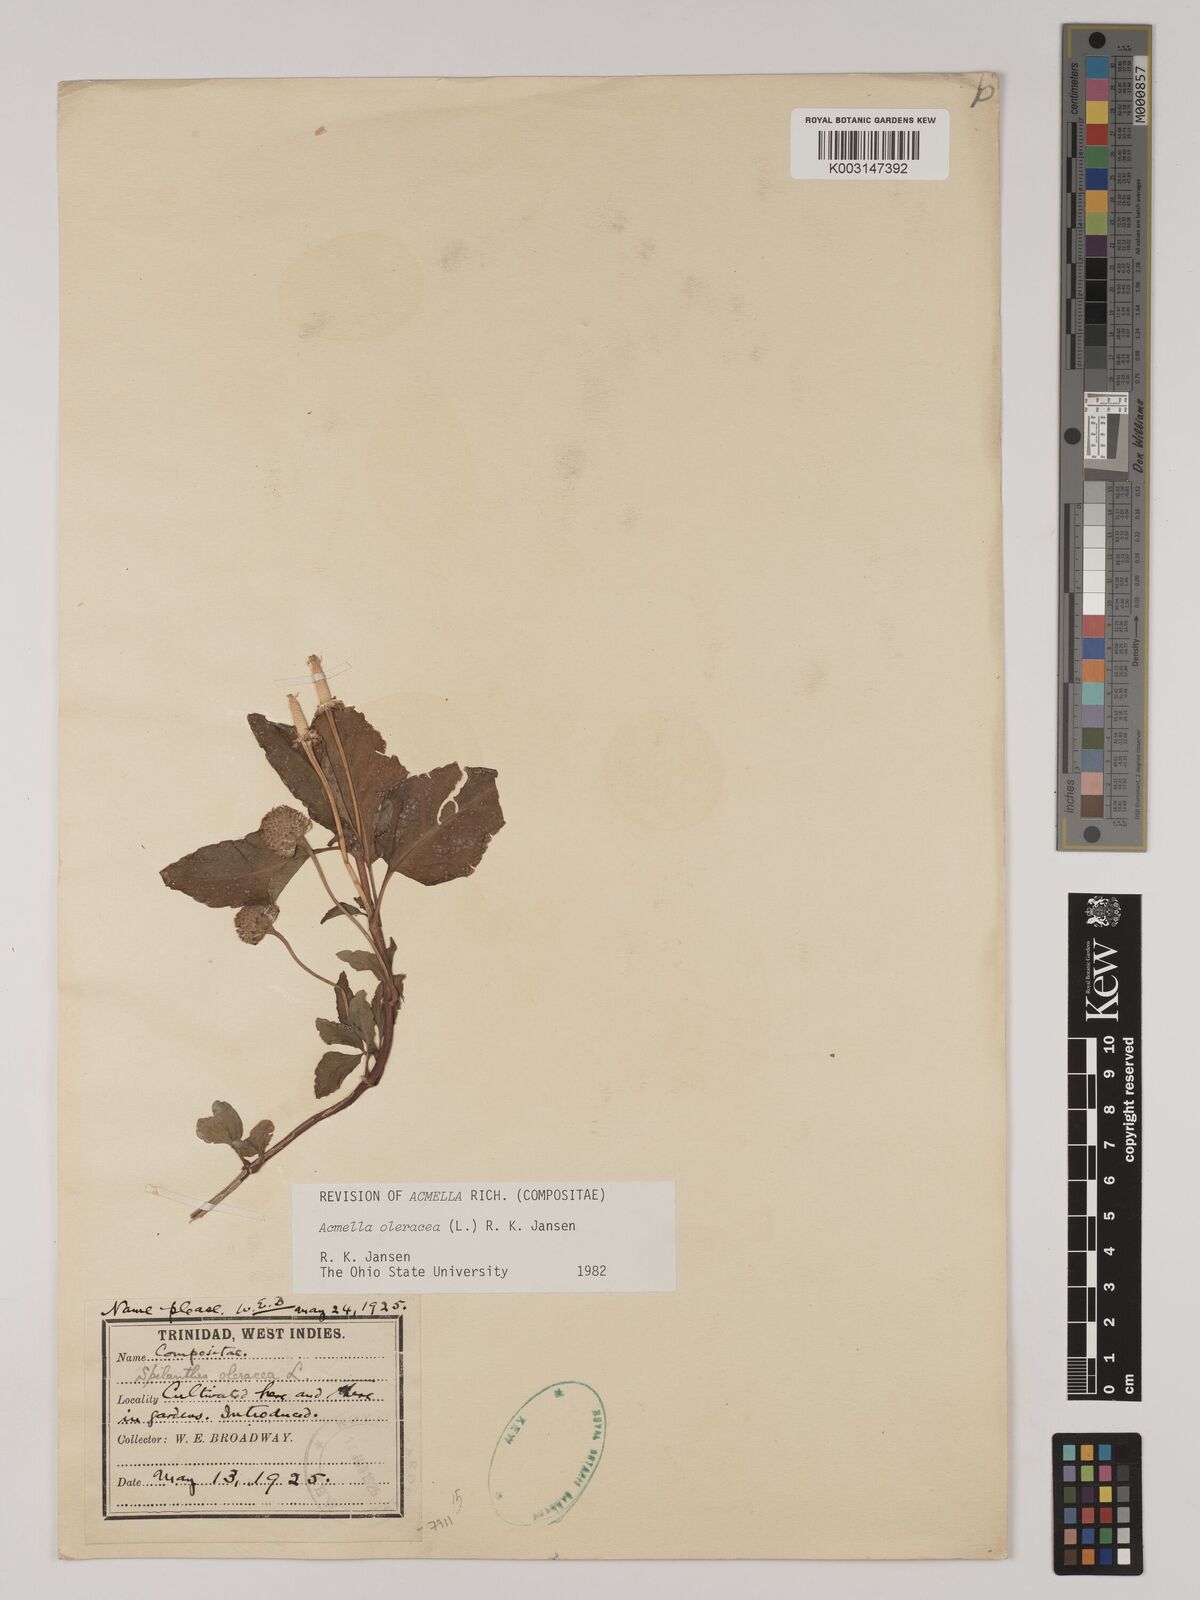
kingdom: Plantae
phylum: Tracheophyta
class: Magnoliopsida
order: Asterales
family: Asteraceae
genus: Acmella
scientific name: Acmella oleracea
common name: Brazilian cress
